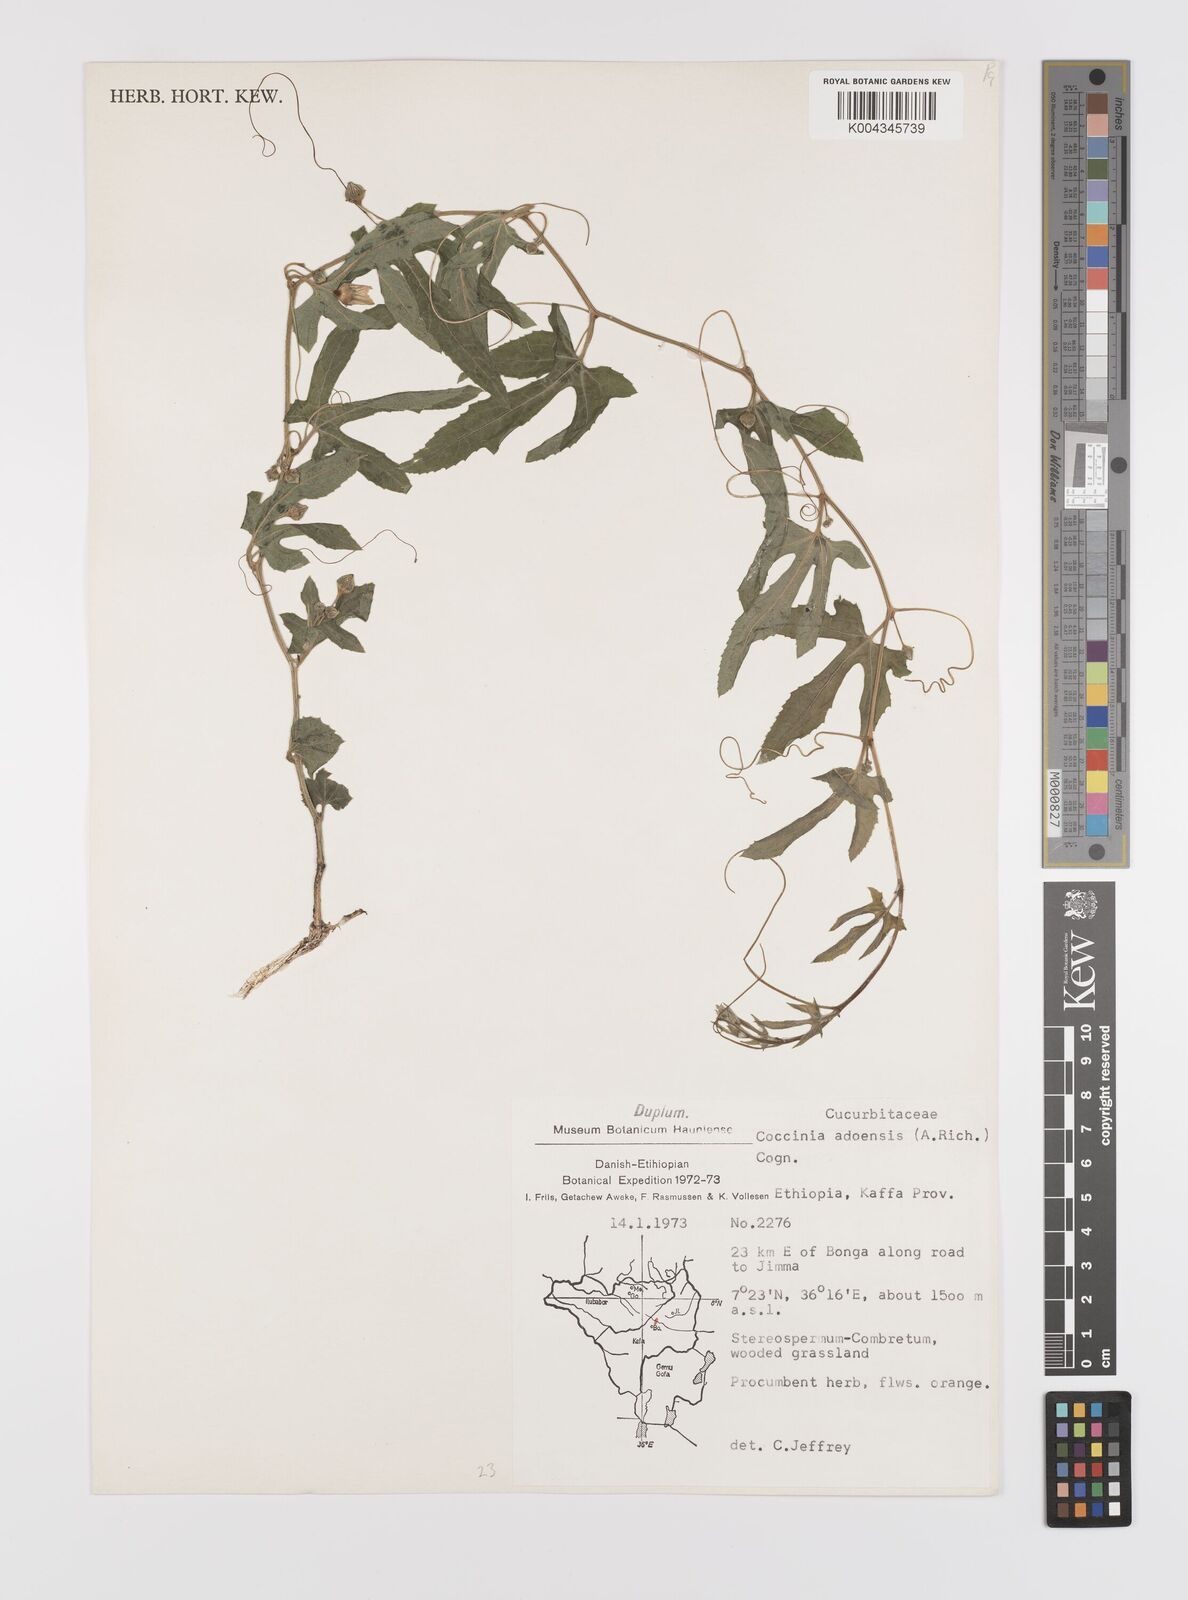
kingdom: Plantae
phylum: Tracheophyta
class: Magnoliopsida
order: Cucurbitales
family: Cucurbitaceae
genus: Coccinia
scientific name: Coccinia adoensis
